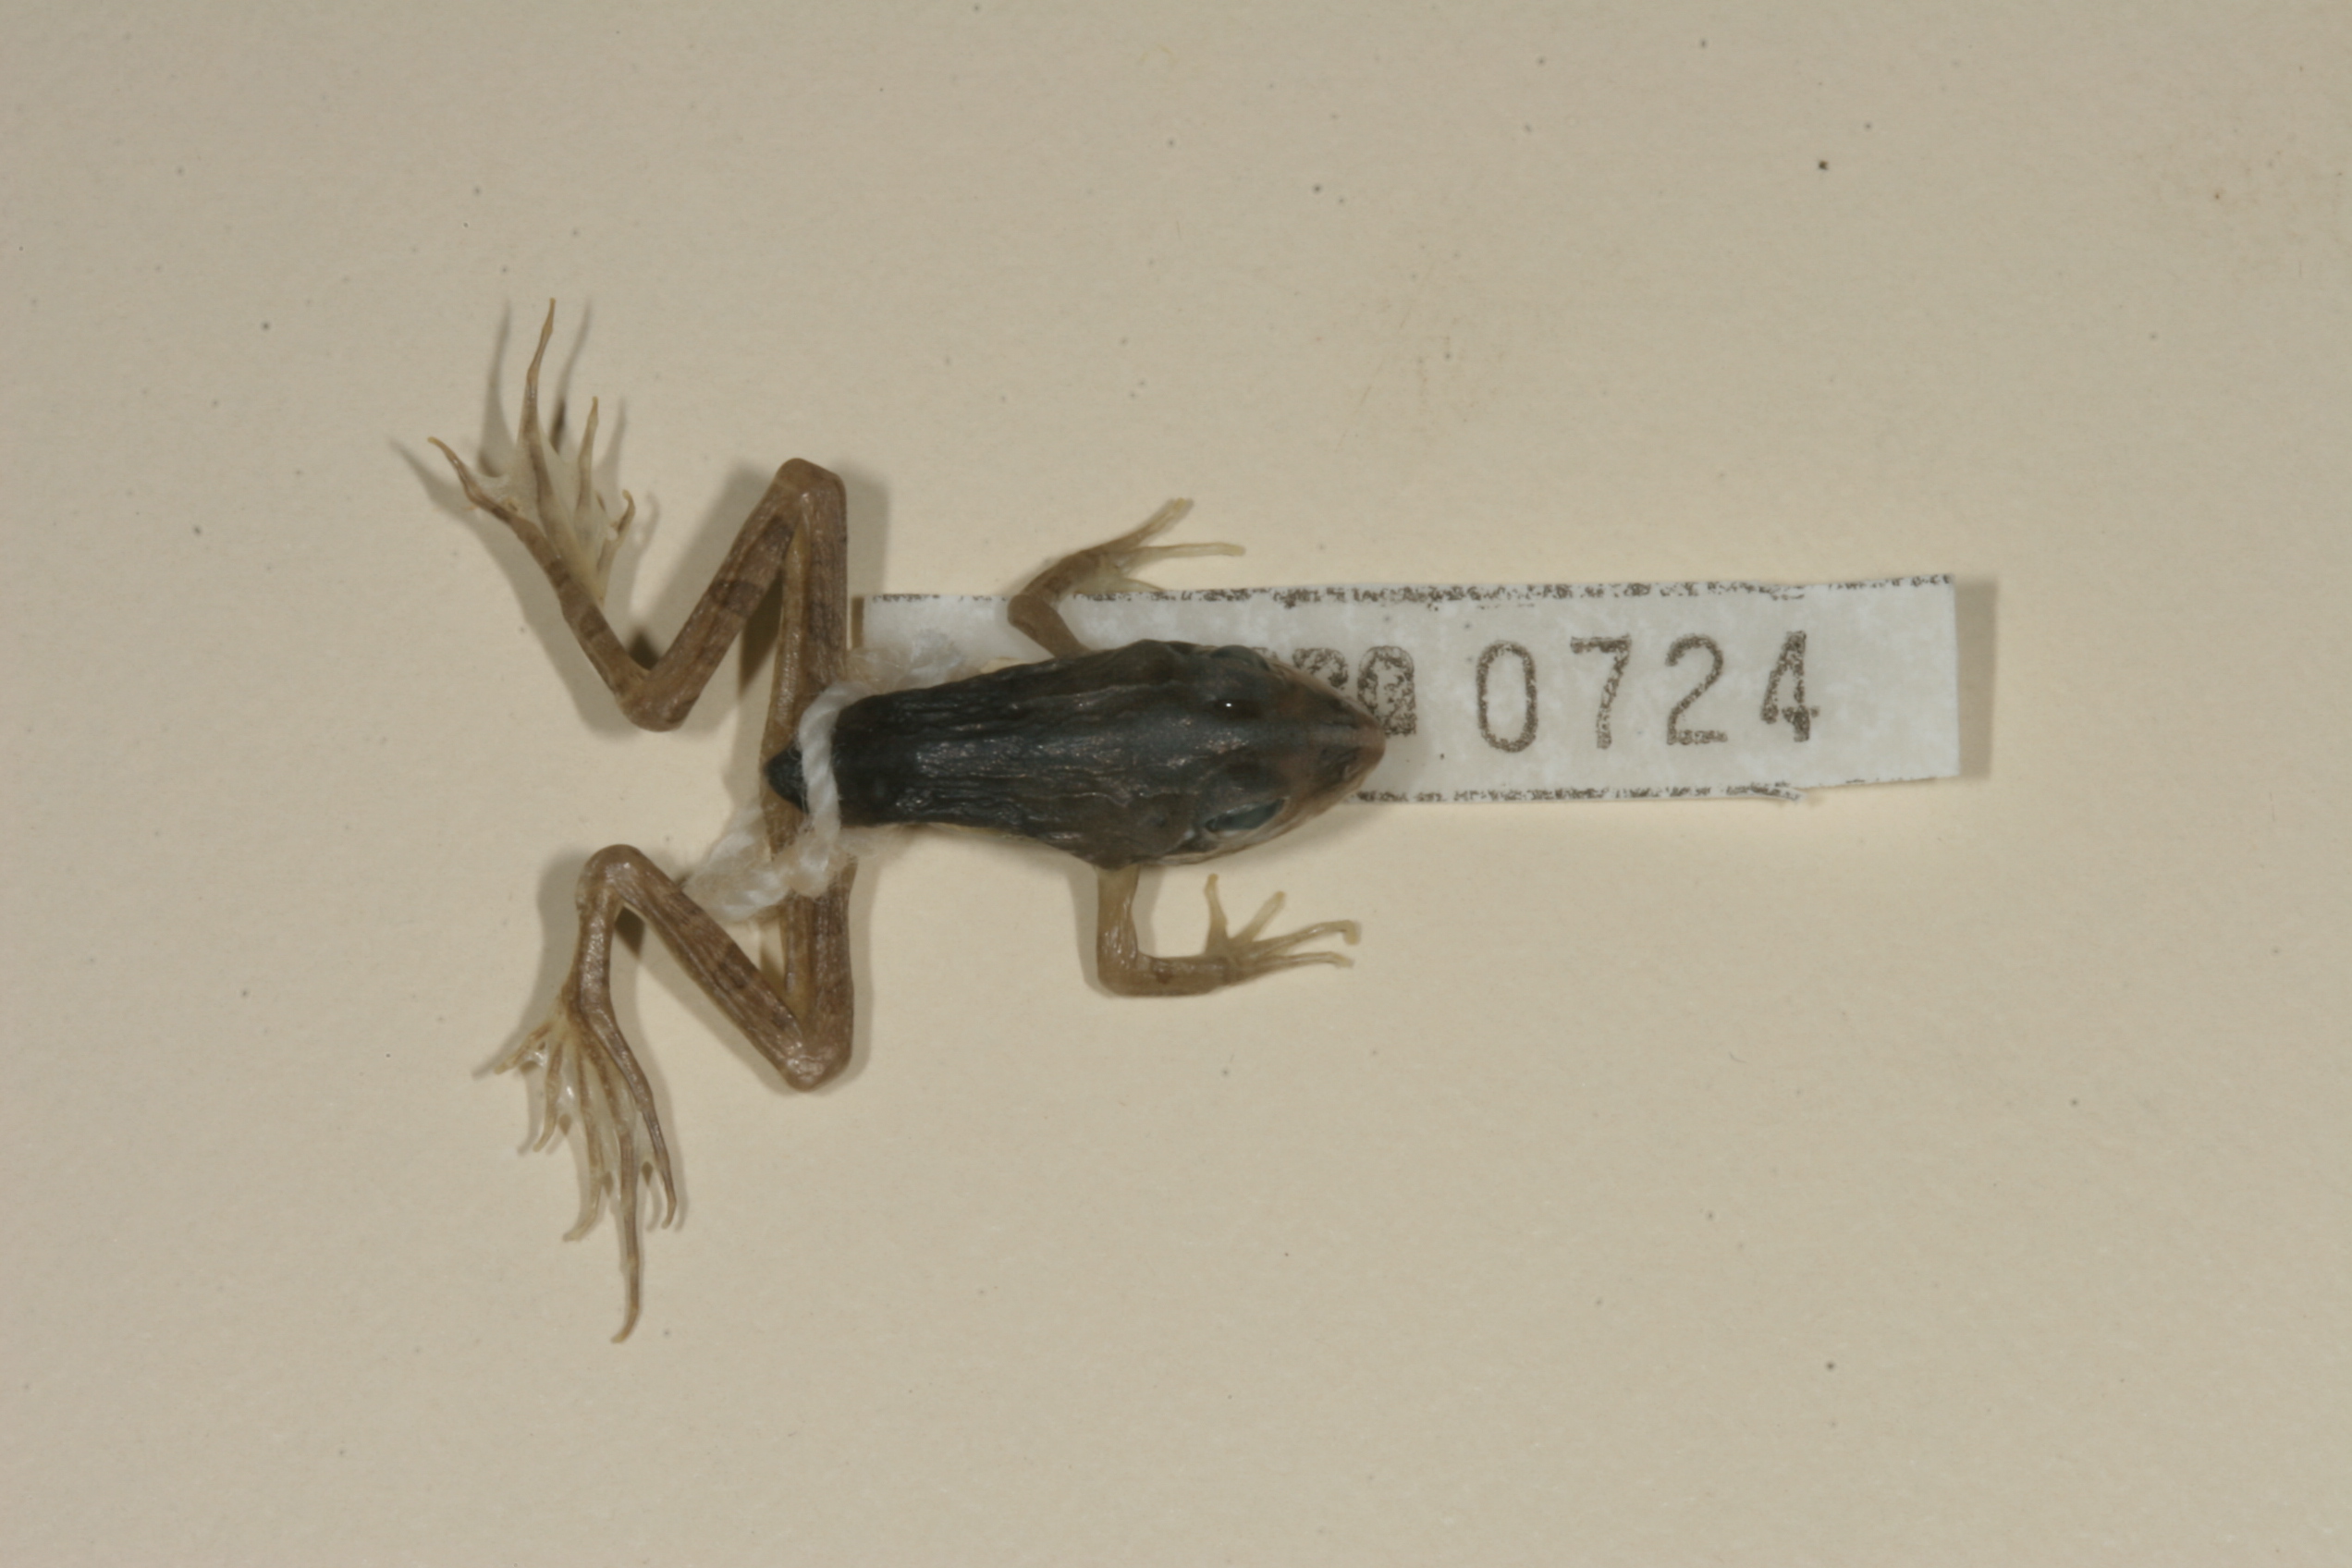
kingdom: Animalia
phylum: Chordata
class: Amphibia
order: Anura
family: Pyxicephalidae
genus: Amietia
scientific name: Amietia angolensis
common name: Dusky-throated frog
